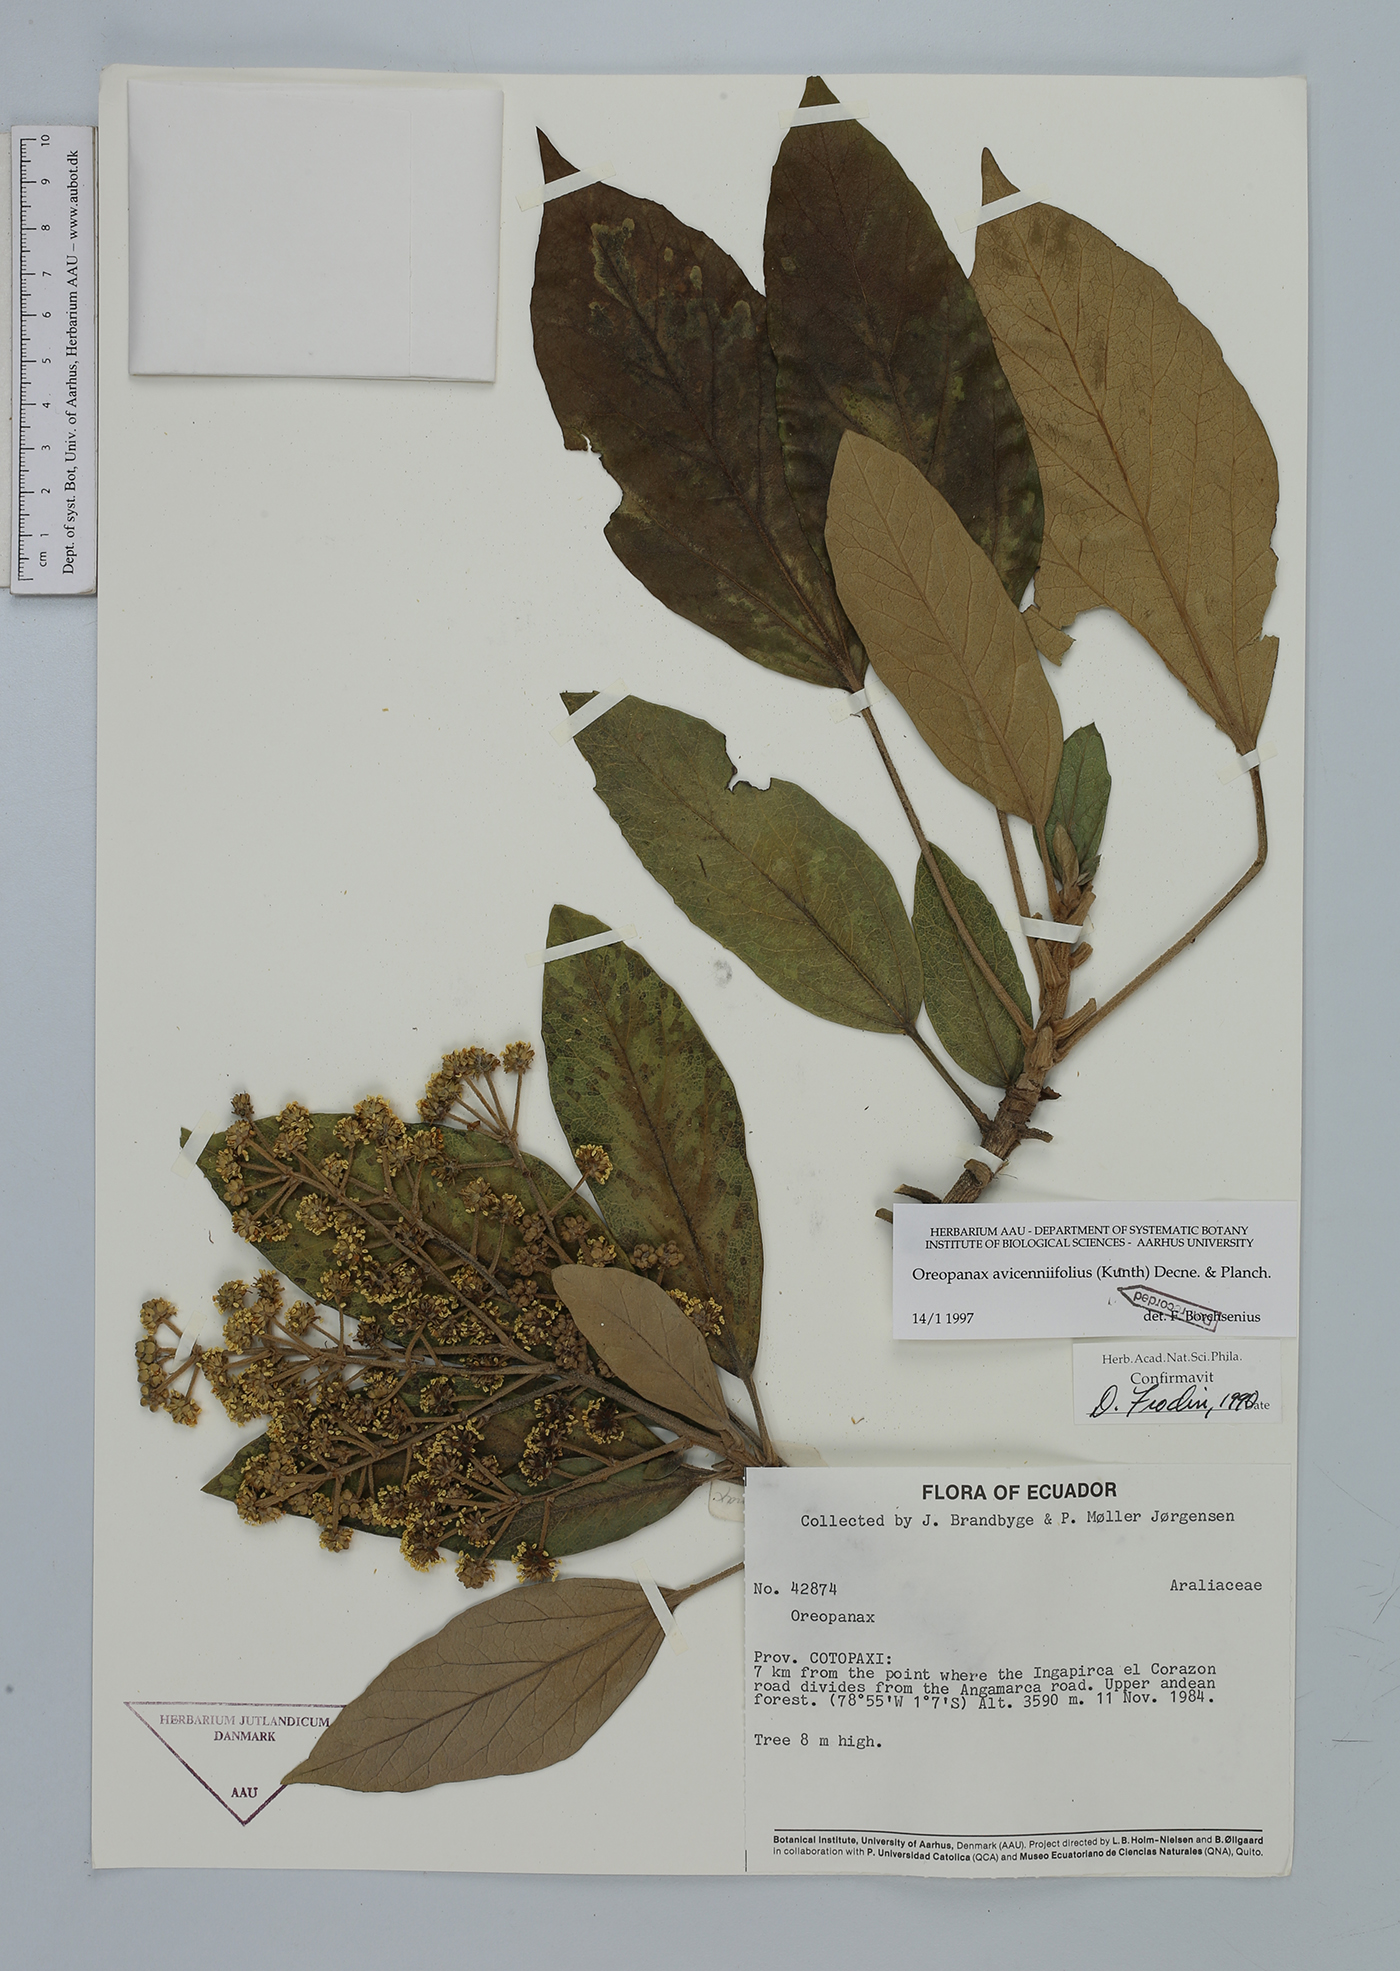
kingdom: Plantae
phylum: Tracheophyta
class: Magnoliopsida
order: Apiales
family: Araliaceae
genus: Oreopanax
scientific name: Oreopanax avicenniifolius
